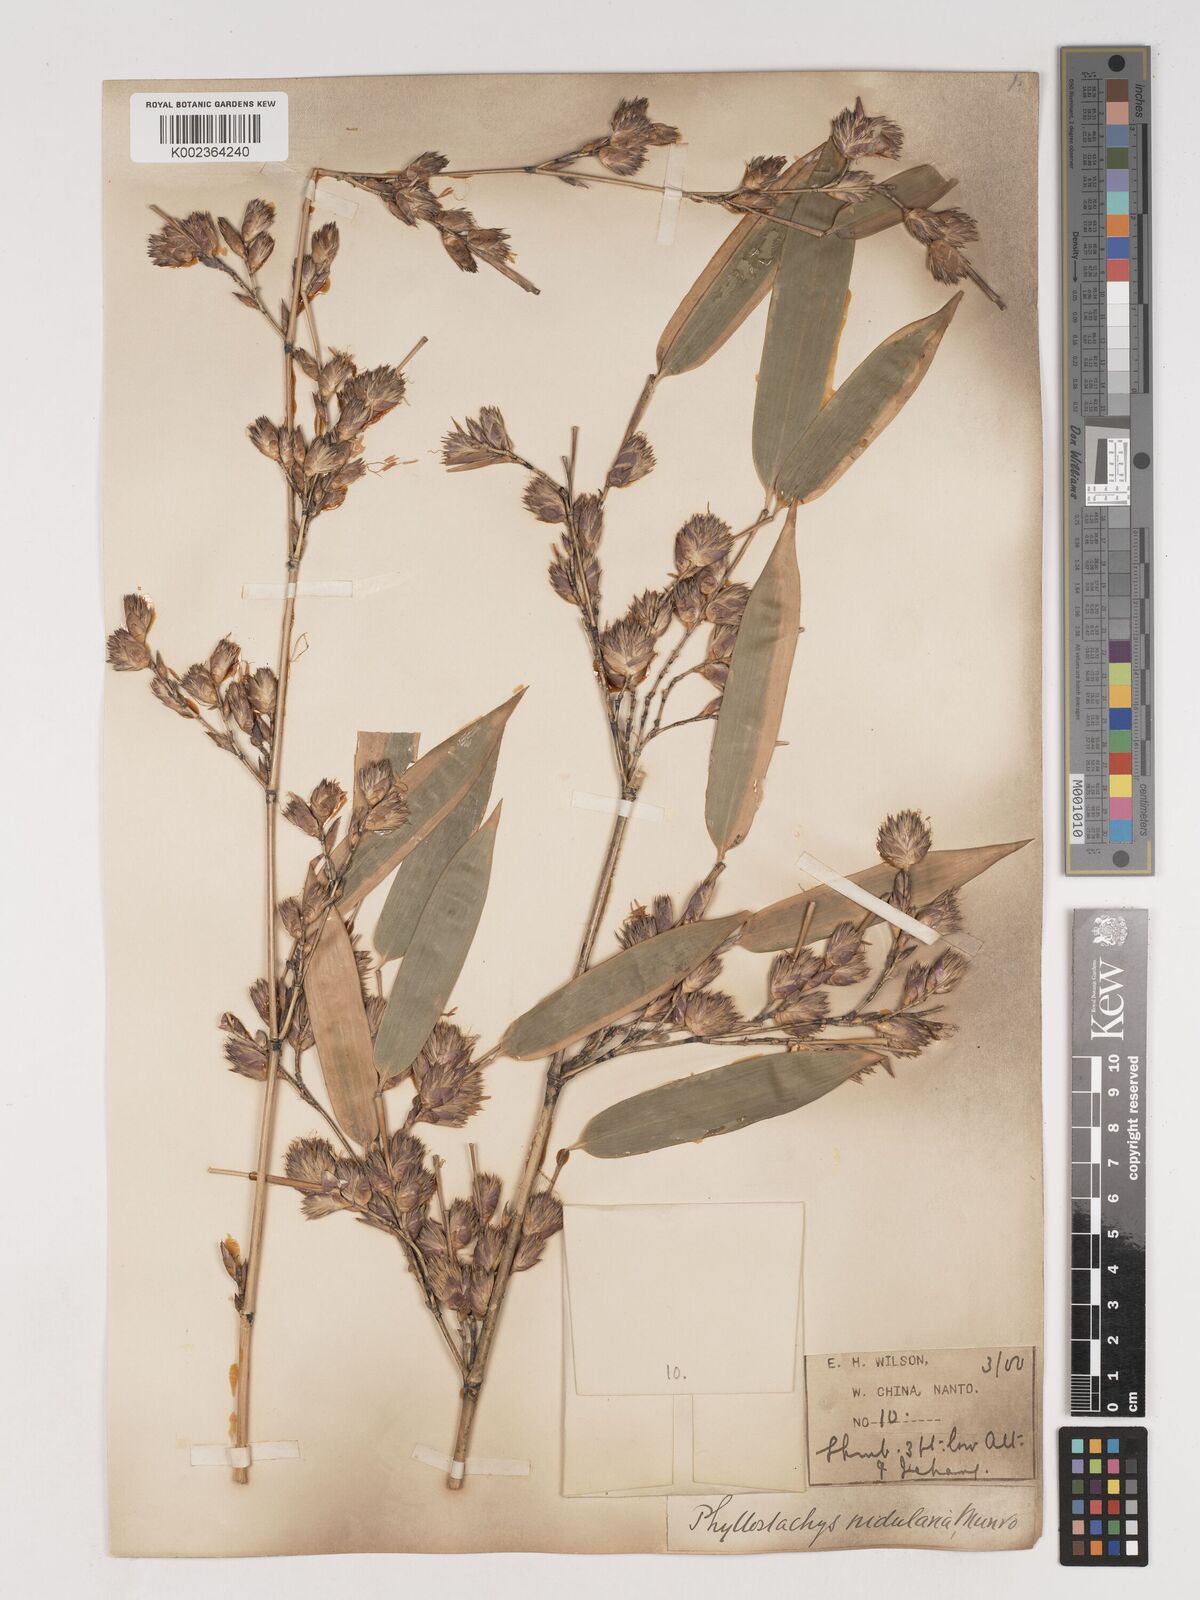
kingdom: Plantae
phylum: Tracheophyta
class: Liliopsida
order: Poales
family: Poaceae
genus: Phyllostachys
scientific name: Phyllostachys nidularia
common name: Broom bamboo
